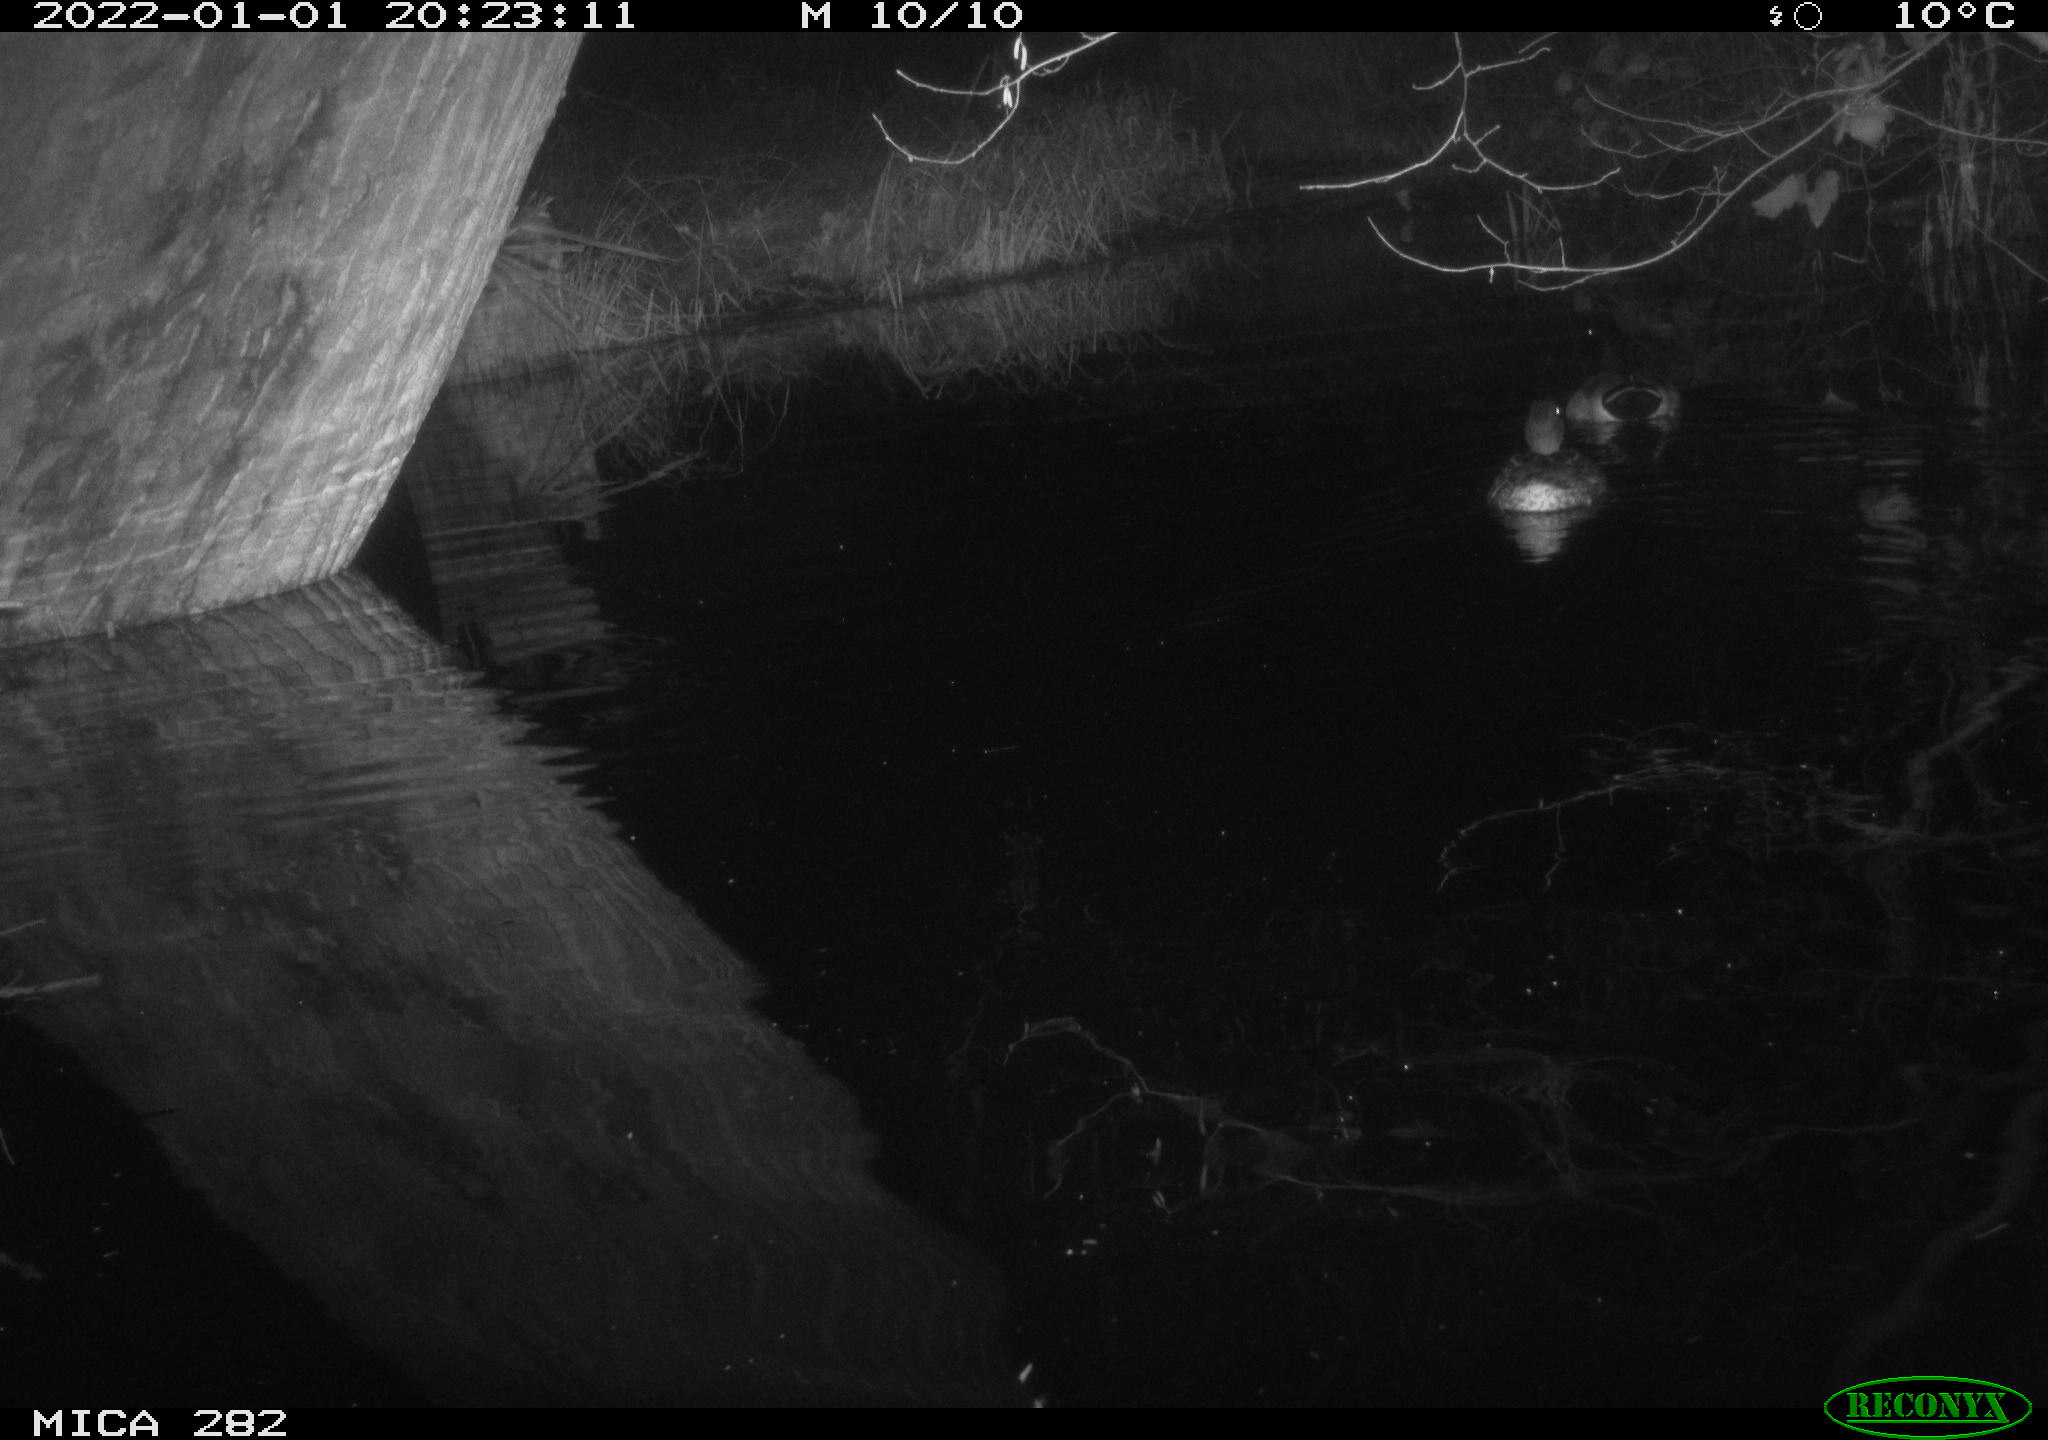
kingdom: Animalia
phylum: Chordata
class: Aves
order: Anseriformes
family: Anatidae
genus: Anas
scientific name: Anas platyrhynchos
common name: Mallard
